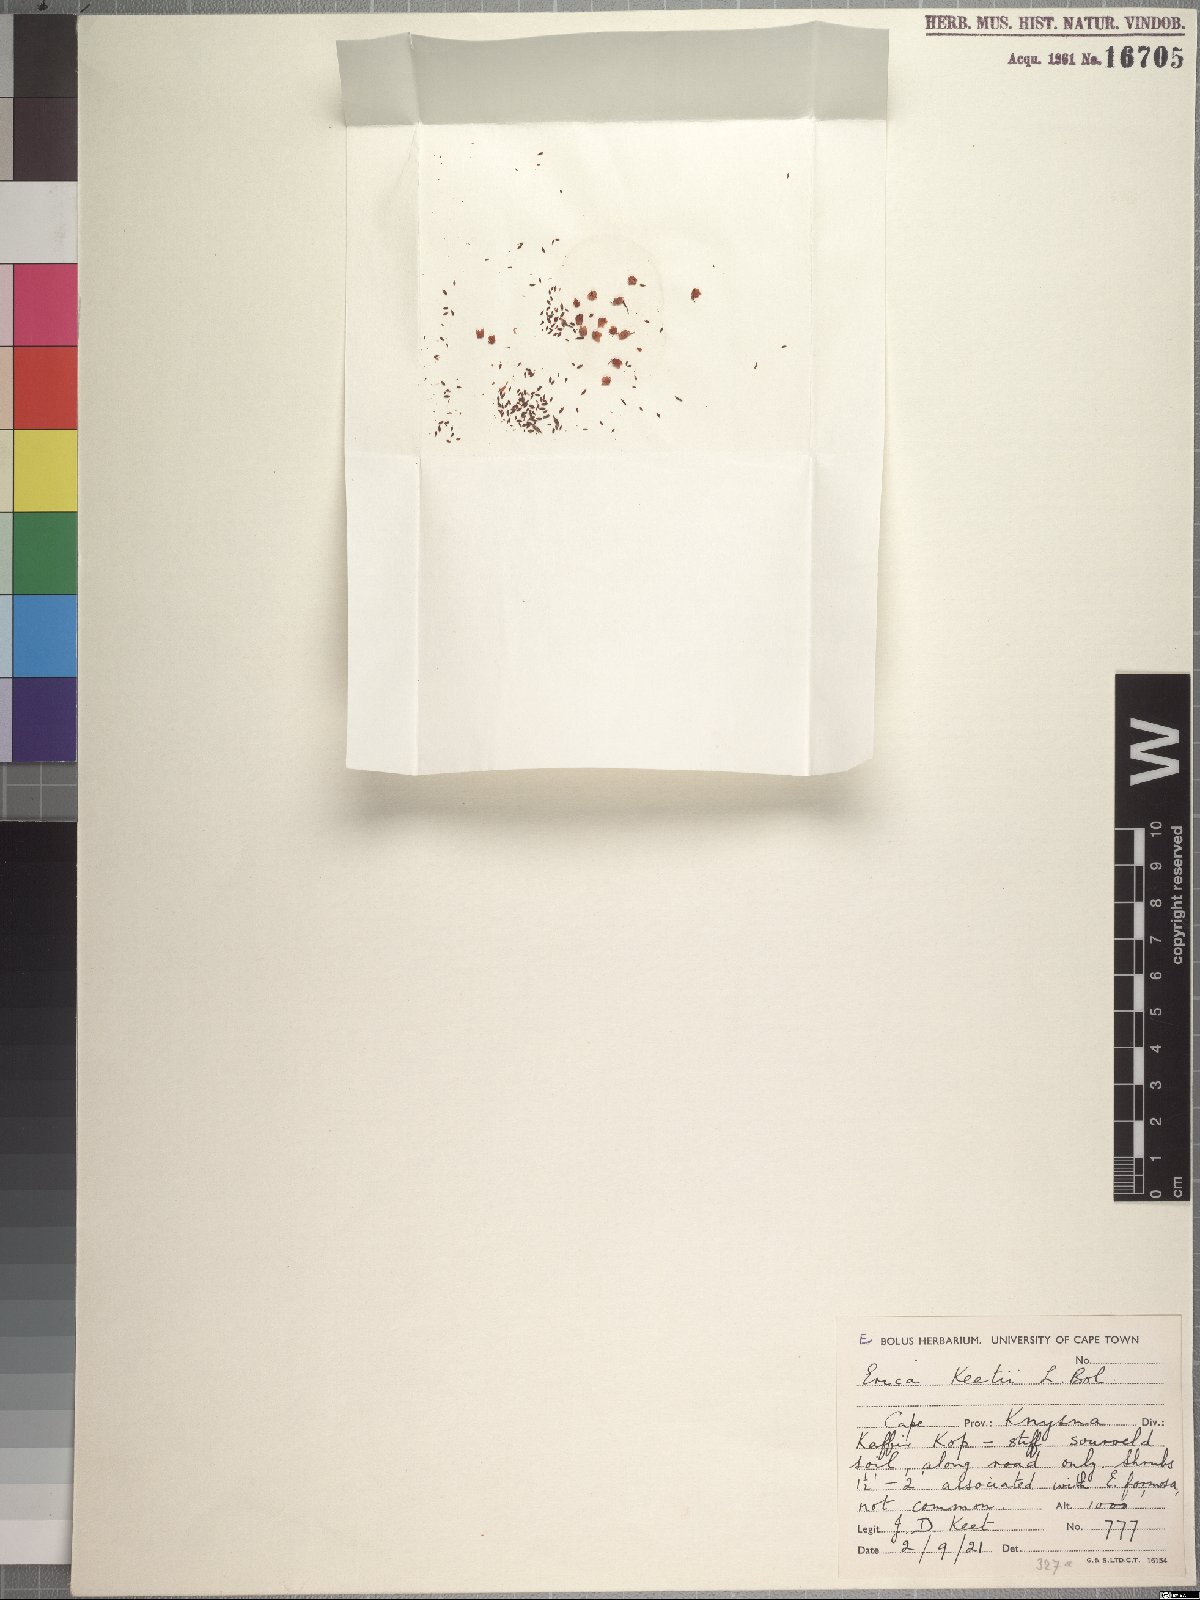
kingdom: Plantae
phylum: Tracheophyta
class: Magnoliopsida
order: Ericales
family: Ericaceae
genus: Erica
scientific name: Erica keetii
